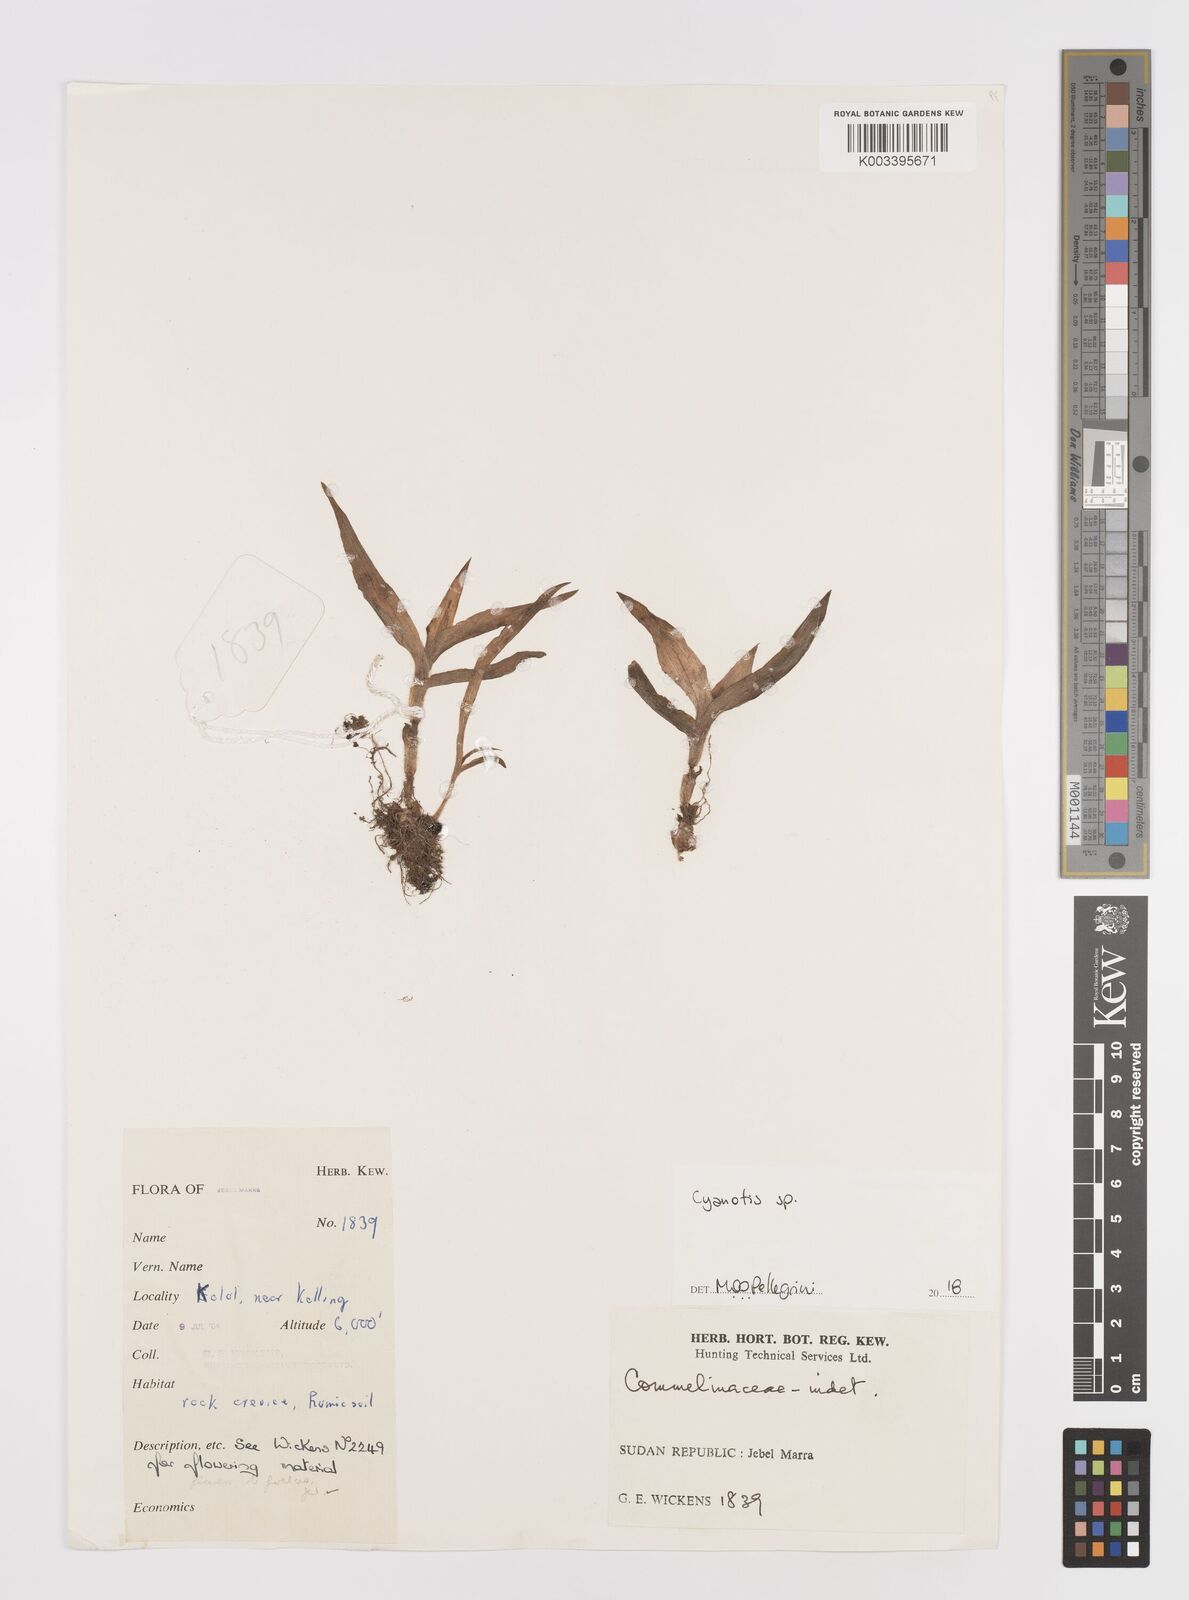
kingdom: Plantae
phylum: Tracheophyta
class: Liliopsida
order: Commelinales
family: Commelinaceae
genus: Cyanotis
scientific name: Cyanotis
